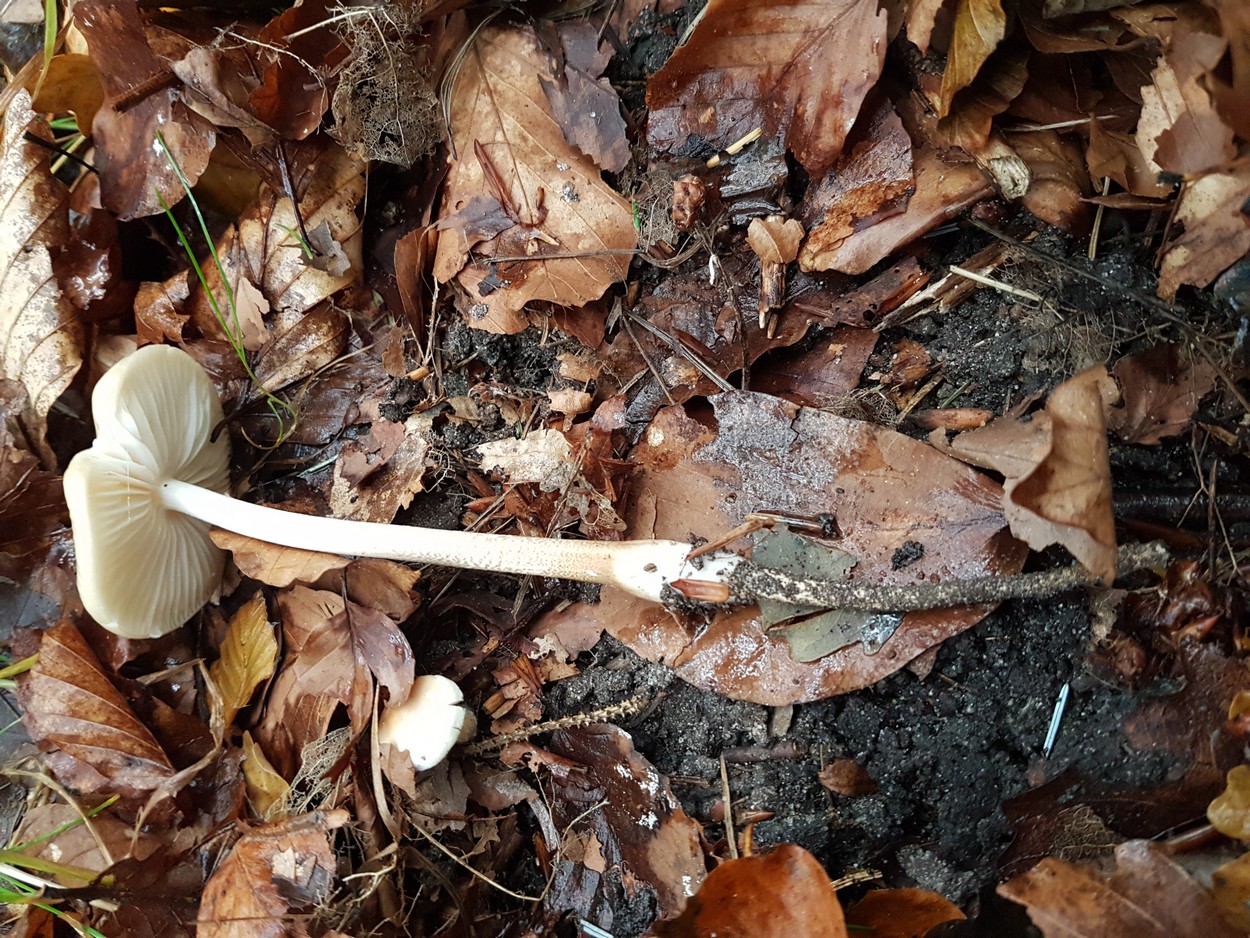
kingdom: Fungi
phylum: Basidiomycota
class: Agaricomycetes
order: Agaricales
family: Physalacriaceae
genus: Hymenopellis
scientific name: Hymenopellis radicata
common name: almindelig pælerodshat
